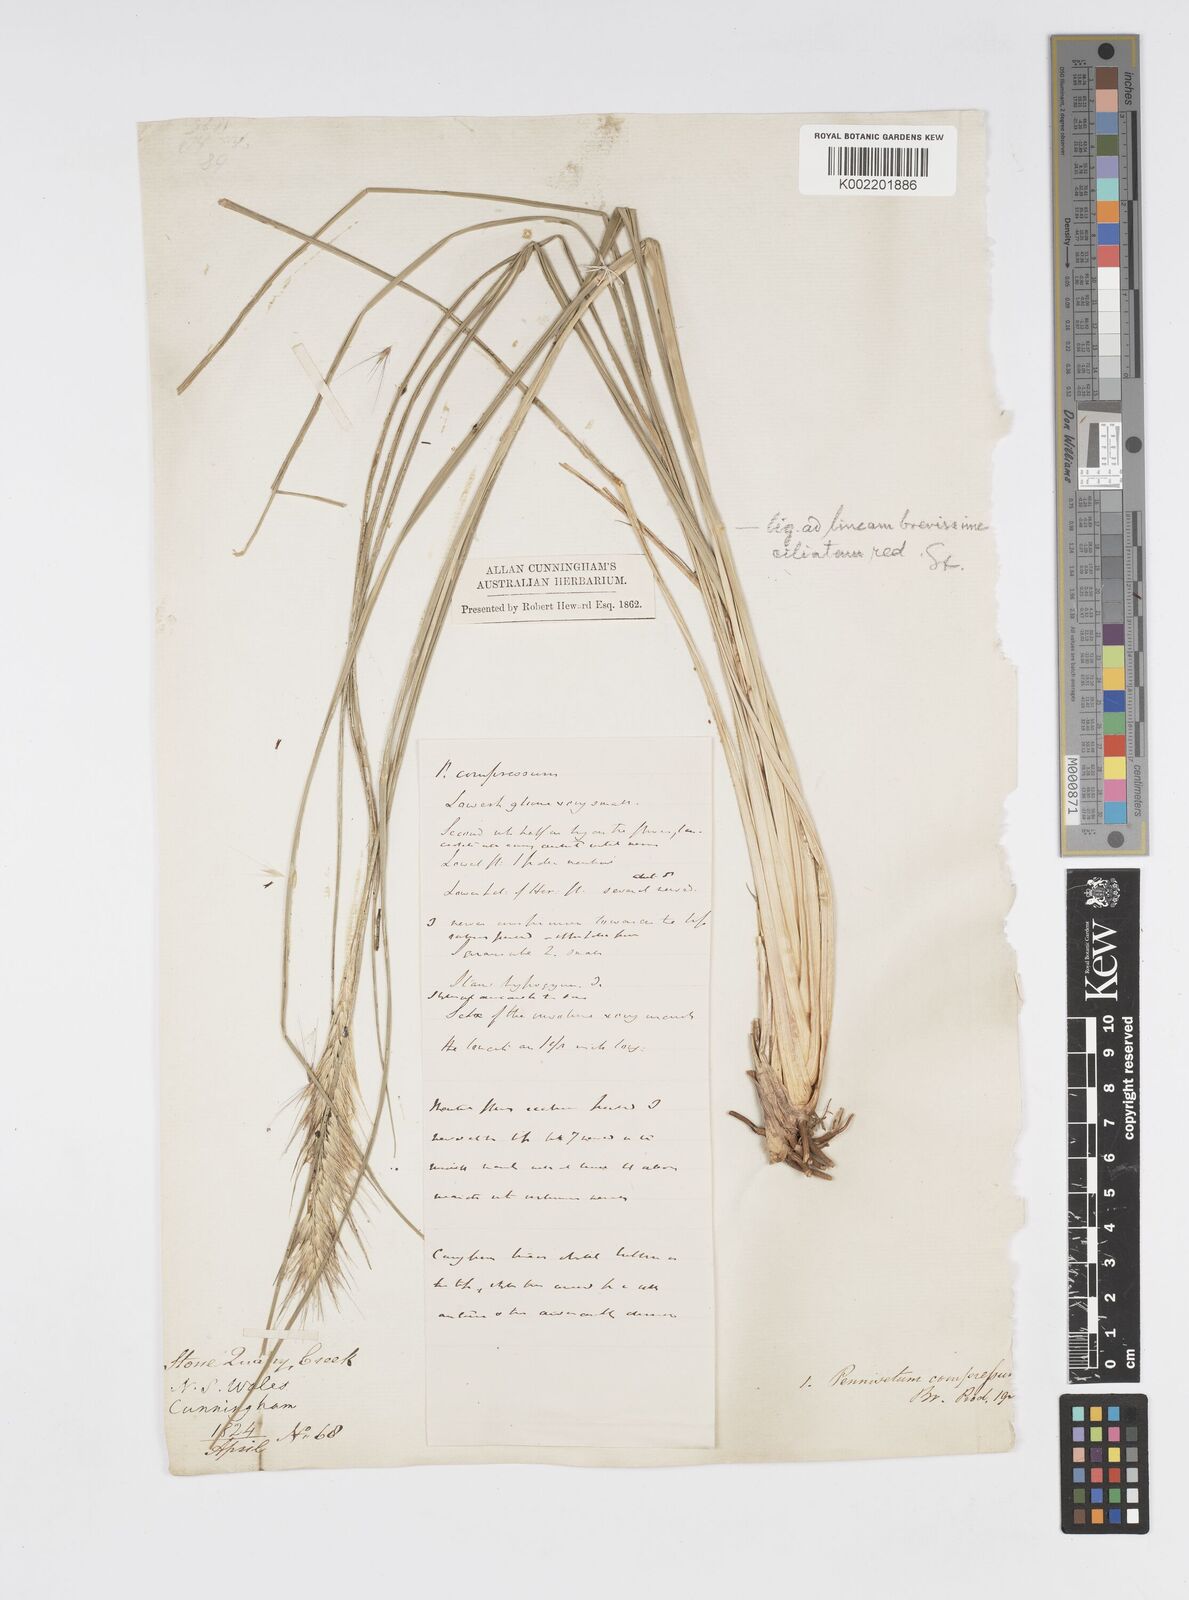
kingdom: Plantae
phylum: Tracheophyta
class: Liliopsida
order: Poales
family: Poaceae
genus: Cenchrus
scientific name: Cenchrus alopecuroides
